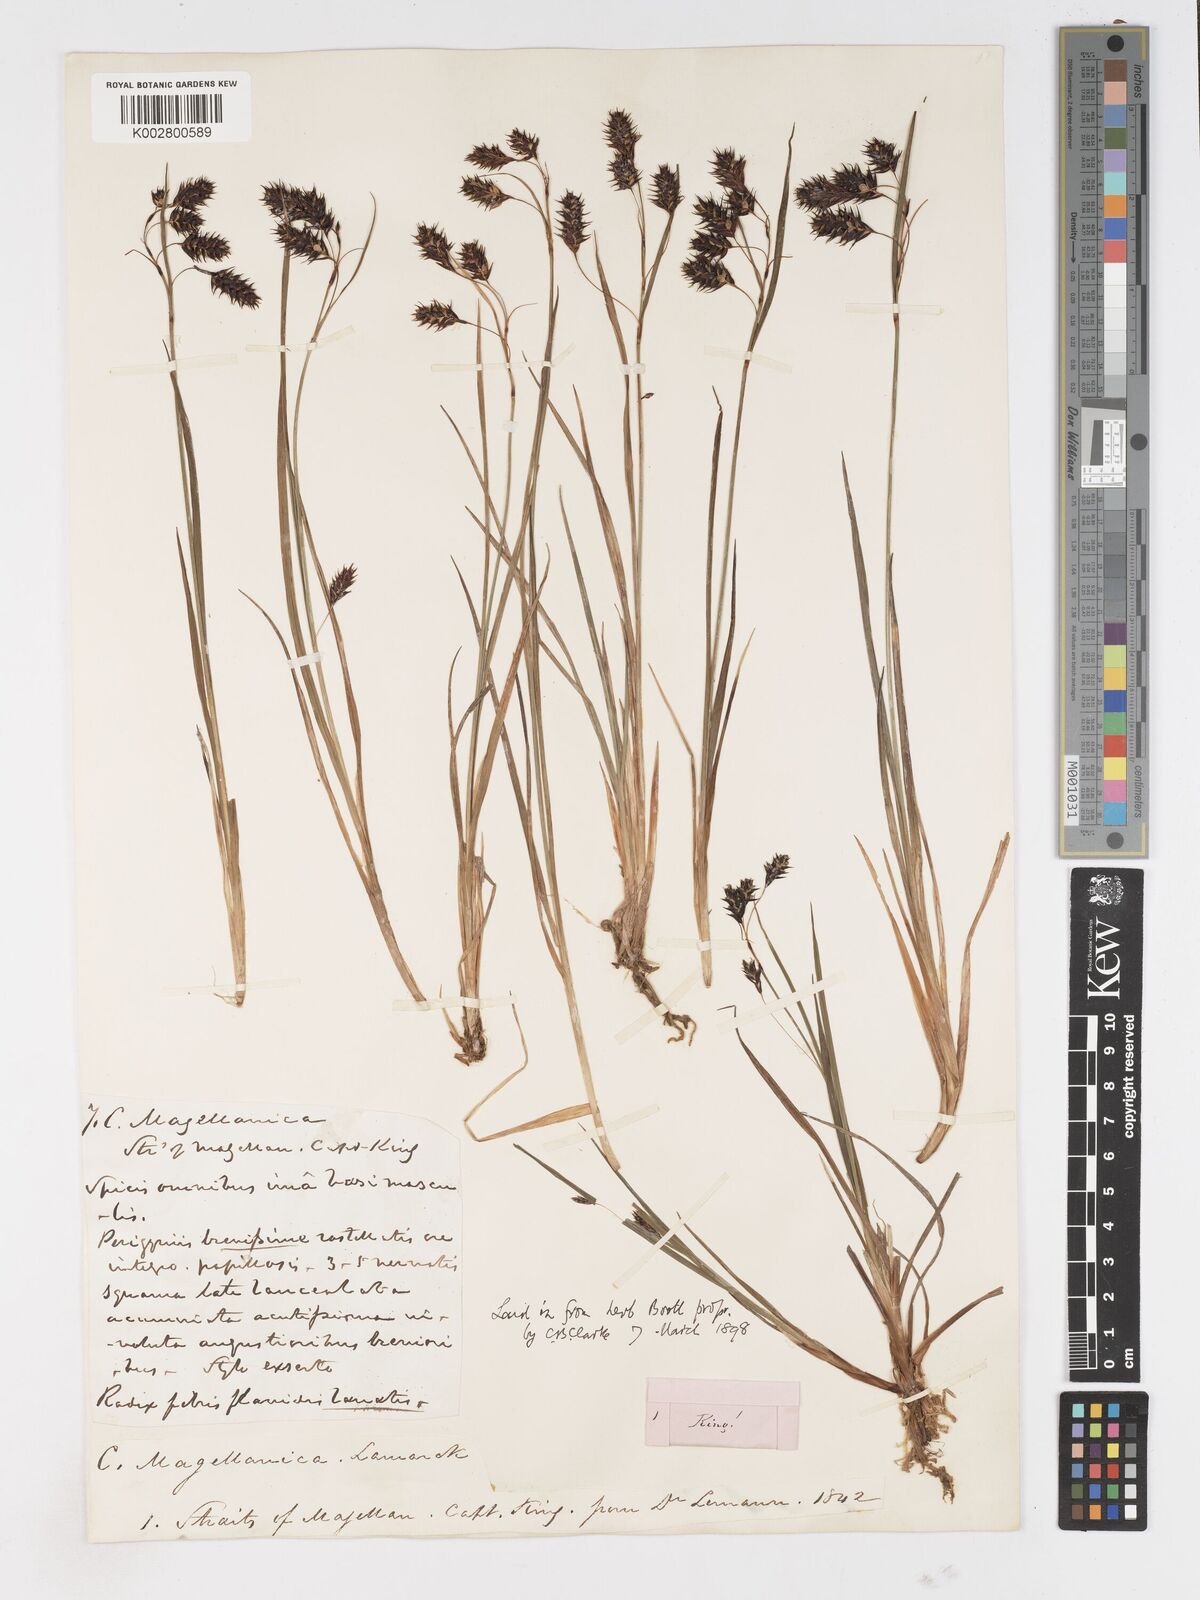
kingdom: Plantae
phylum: Tracheophyta
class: Liliopsida
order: Poales
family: Cyperaceae
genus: Carex
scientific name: Carex magellanica
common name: Bog sedge
